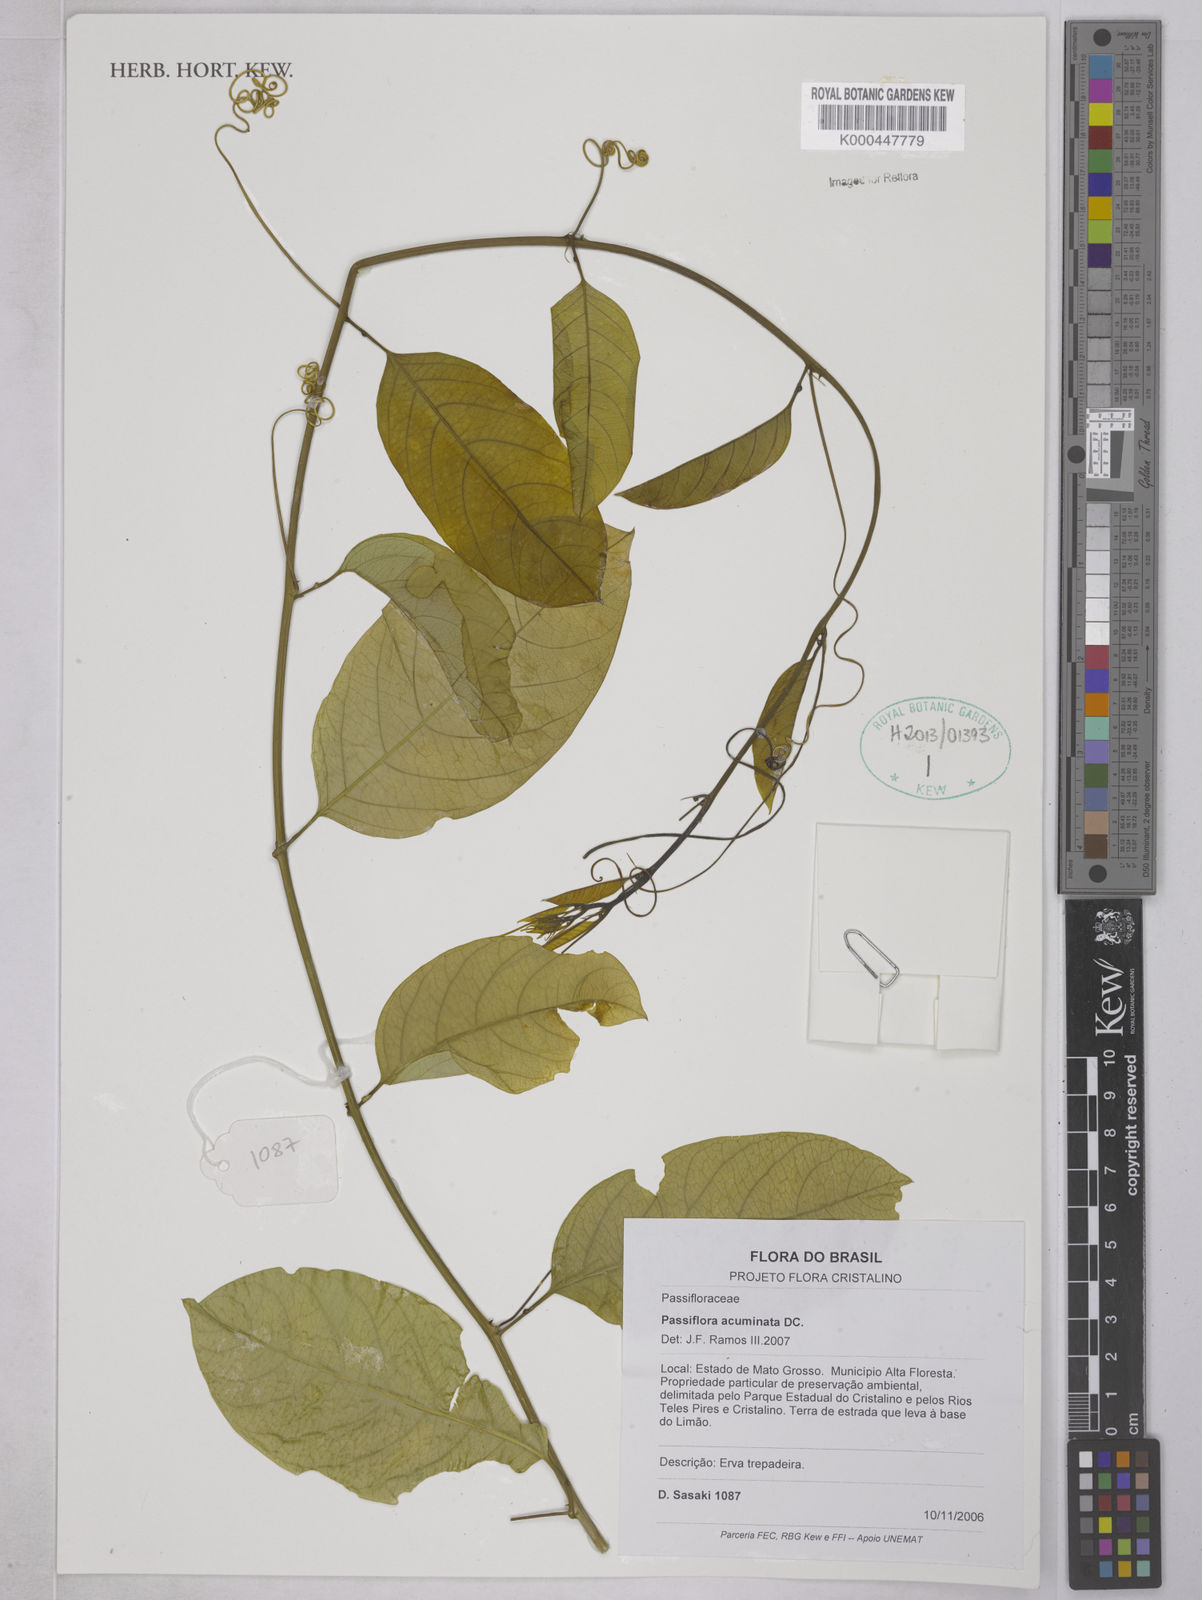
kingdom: Plantae
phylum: Tracheophyta
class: Magnoliopsida
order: Malpighiales
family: Passifloraceae
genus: Passiflora
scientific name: Passiflora acuminata
